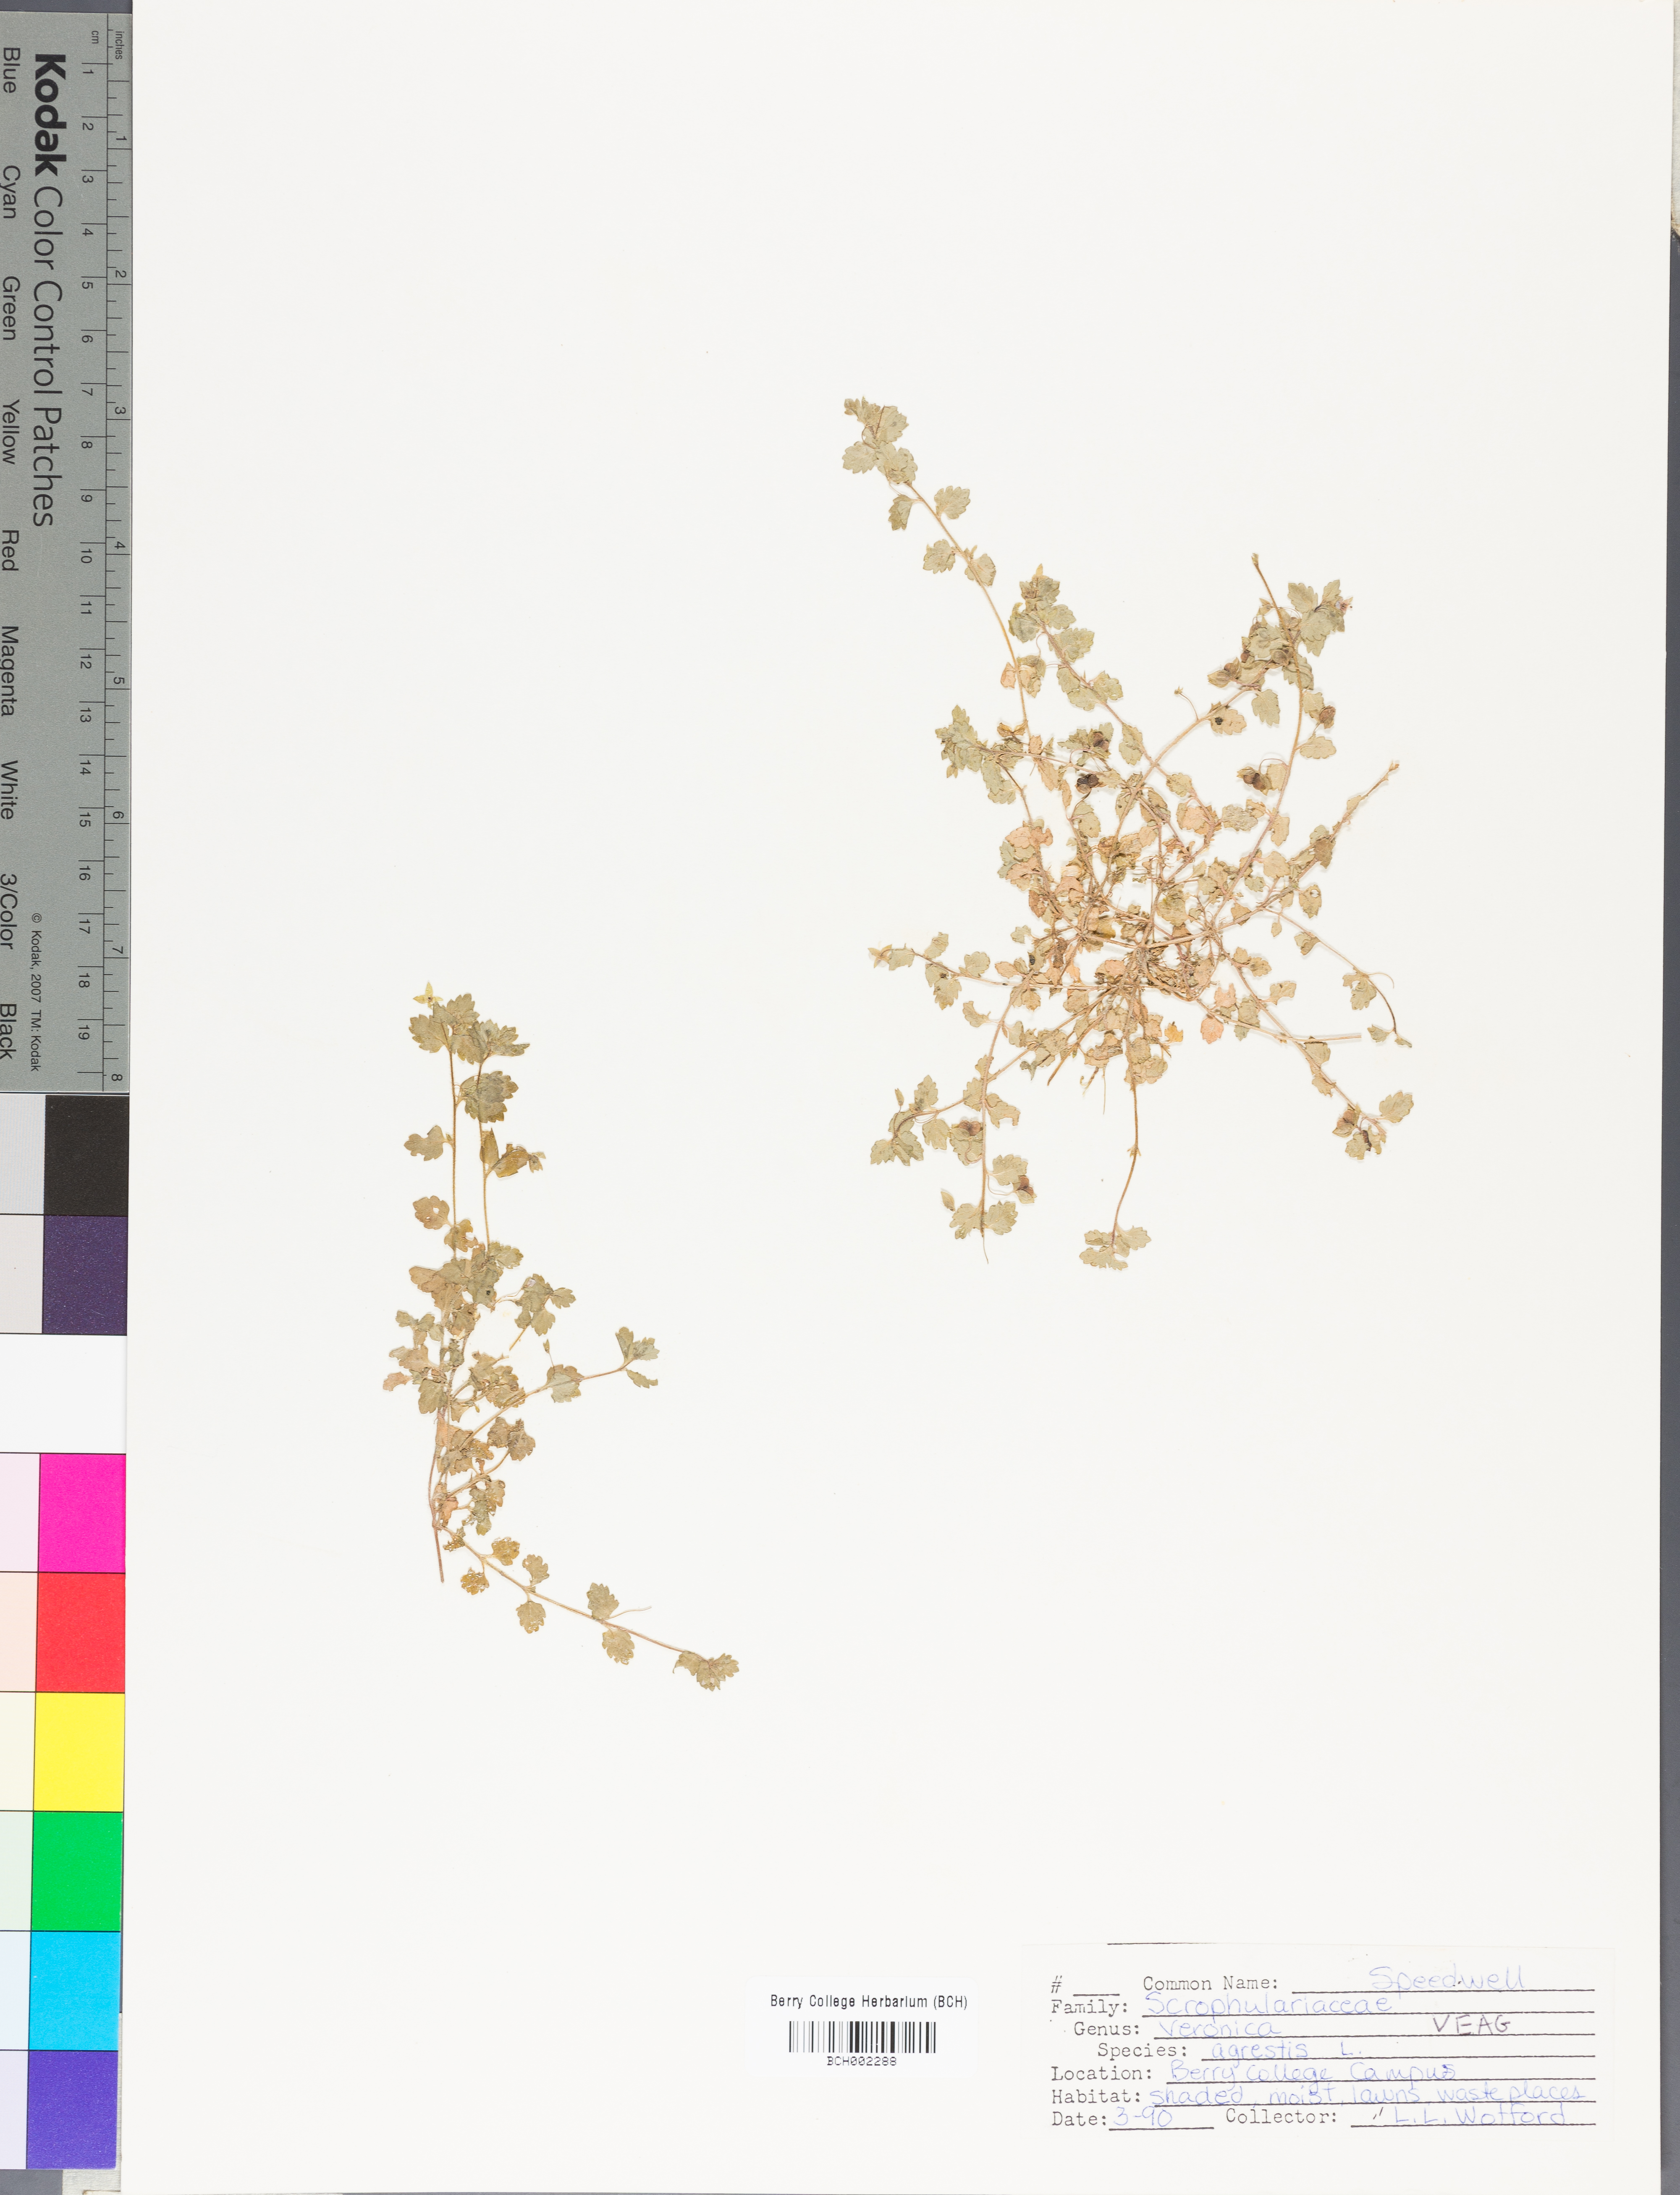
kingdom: Plantae
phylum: Tracheophyta
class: Magnoliopsida
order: Lamiales
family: Plantaginaceae
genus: Veronica
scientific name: Veronica agrestis
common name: Green field-speedwell
